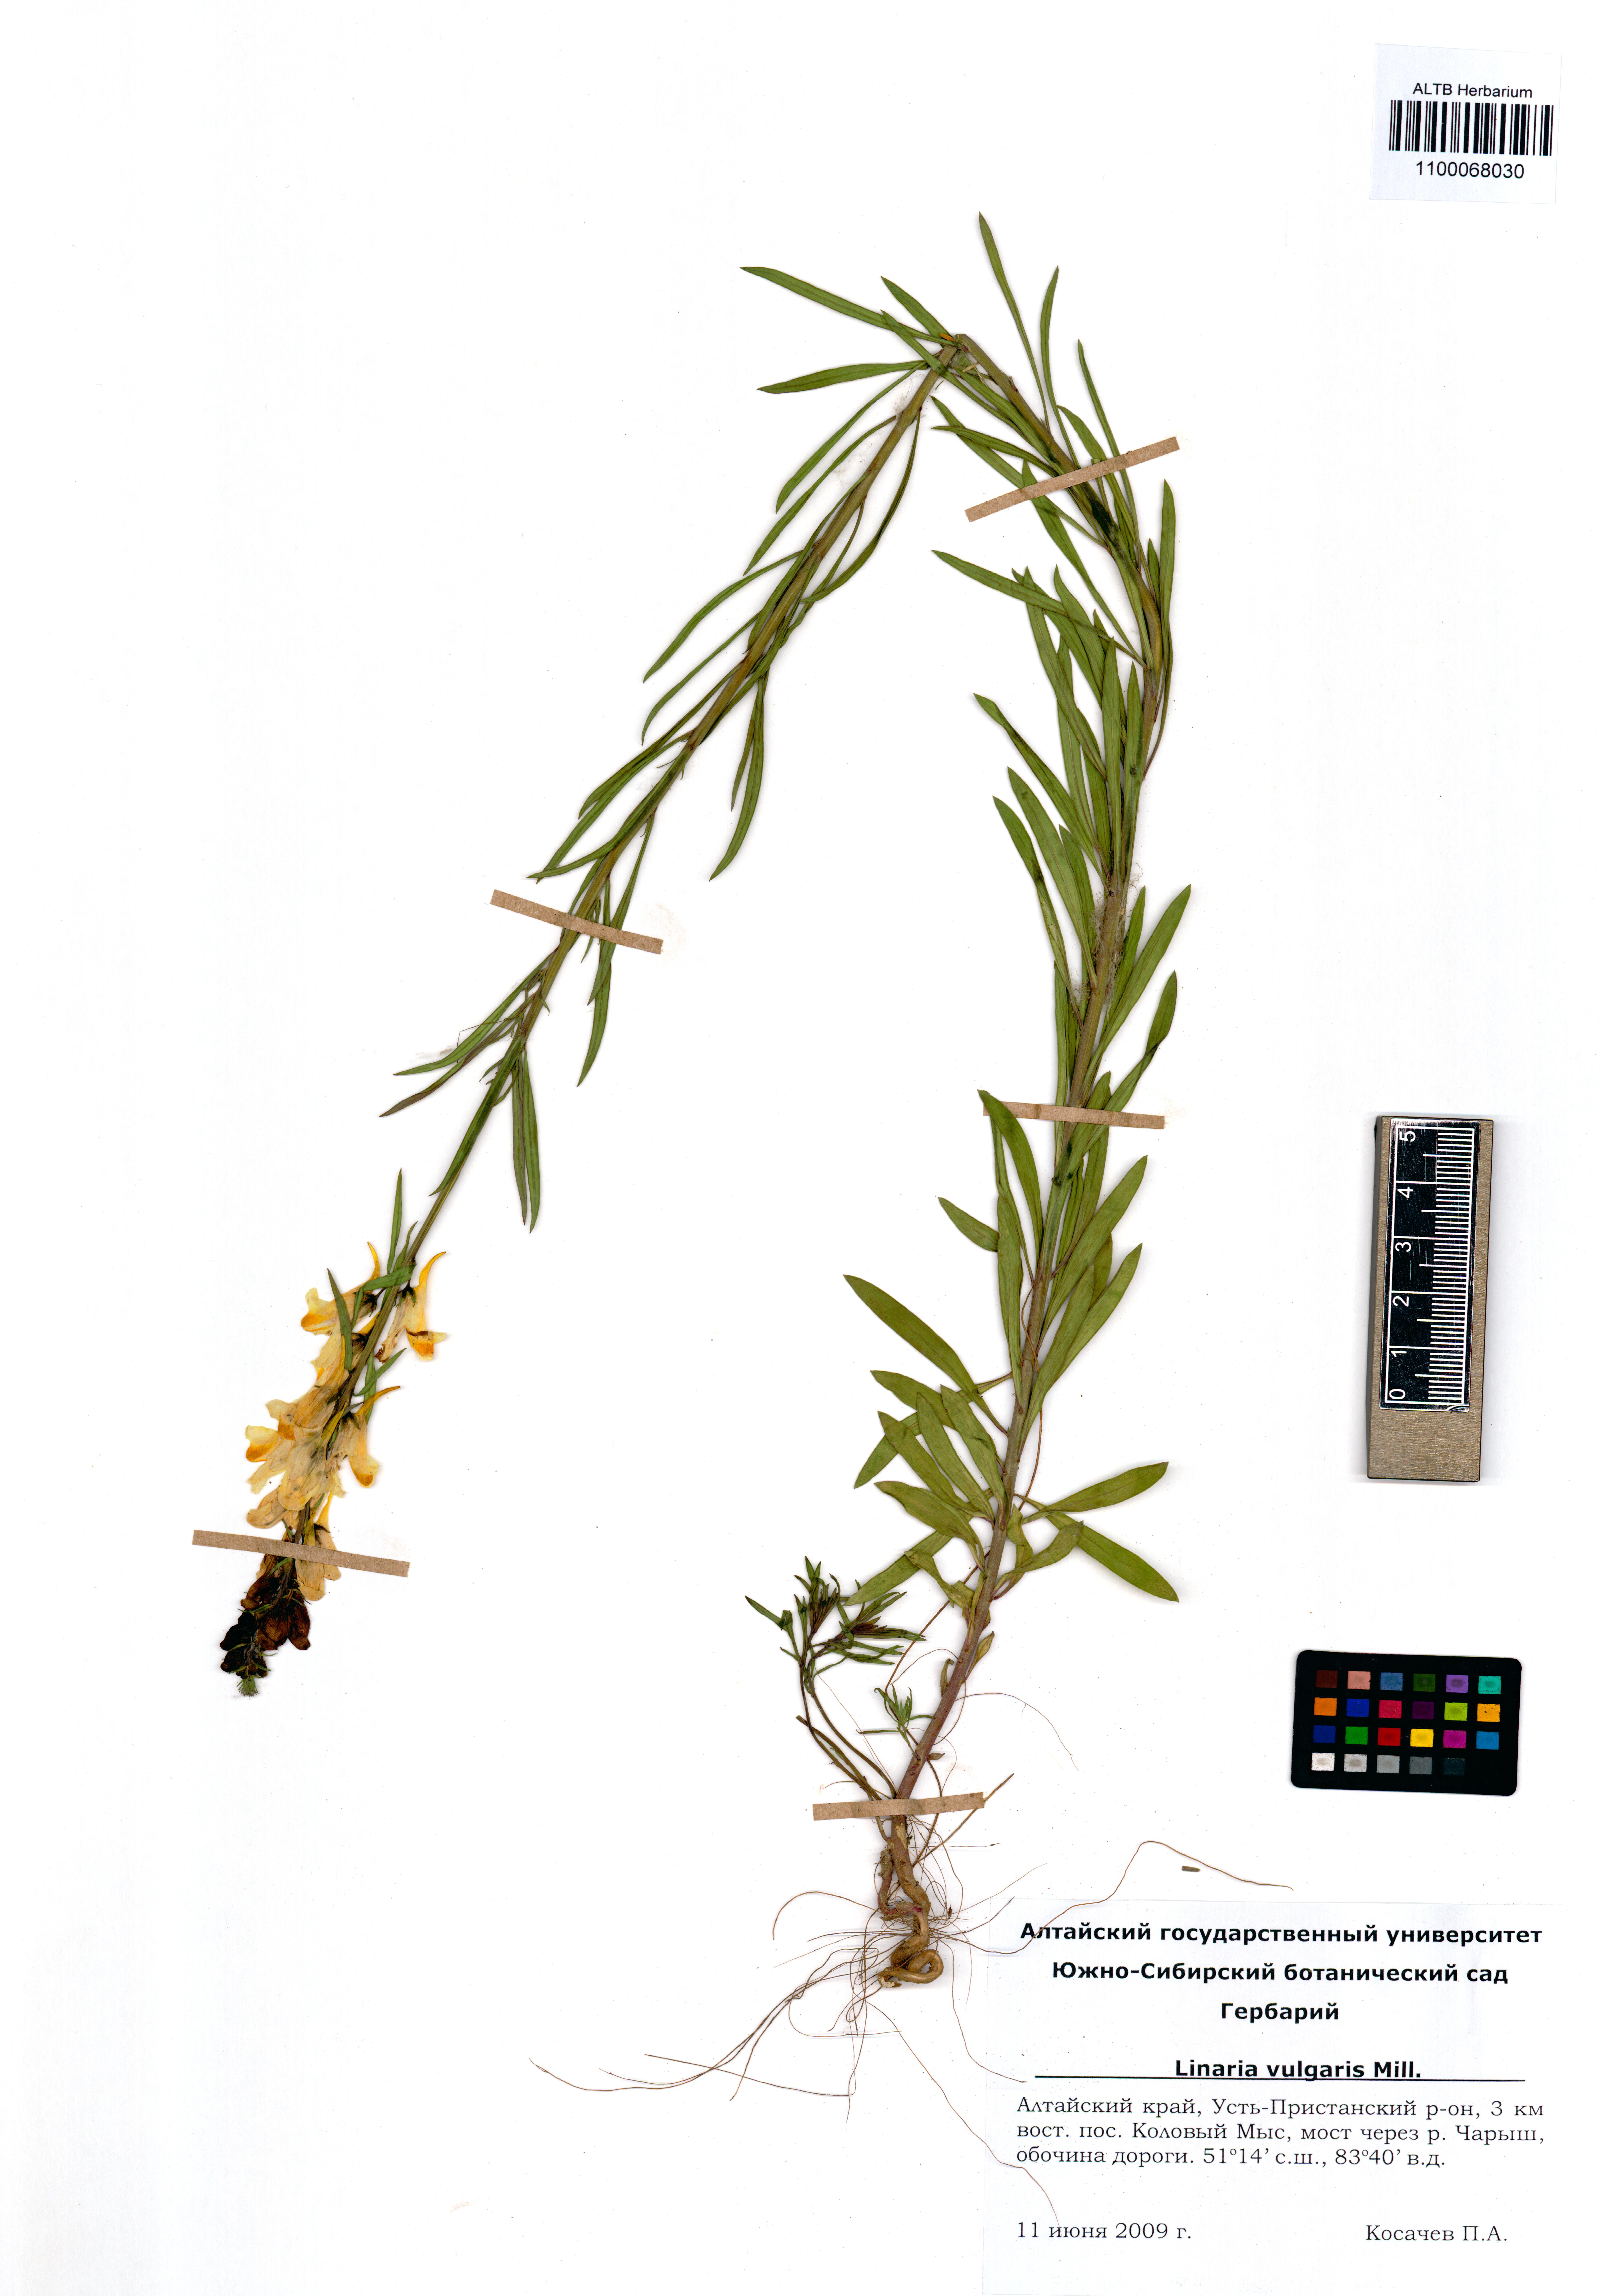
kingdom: Plantae
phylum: Tracheophyta
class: Magnoliopsida
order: Lamiales
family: Plantaginaceae
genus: Linaria
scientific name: Linaria vulgaris
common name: Butter and eggs
